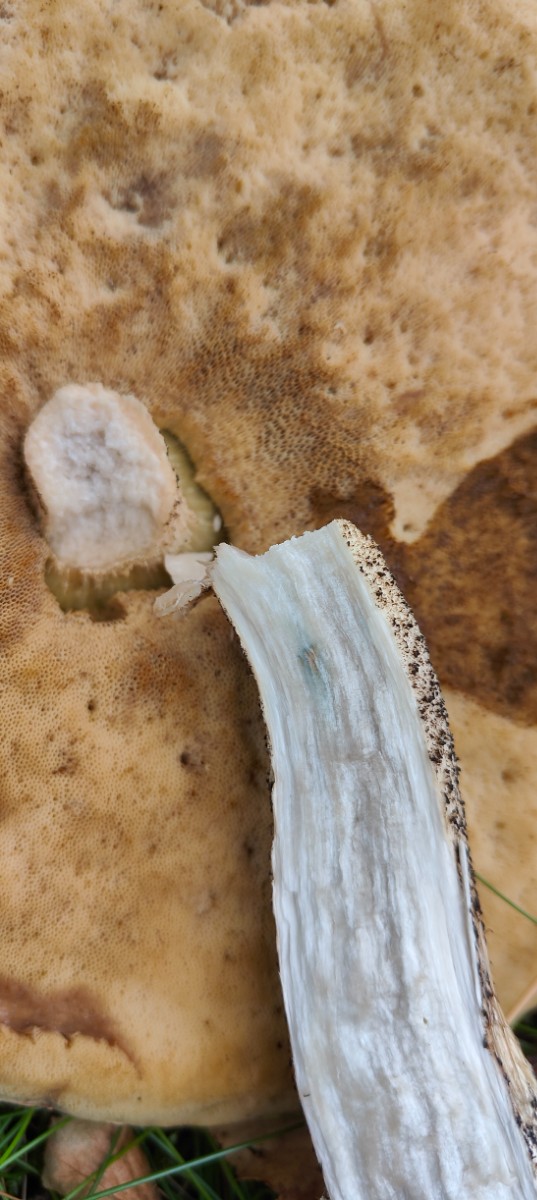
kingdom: Fungi
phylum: Basidiomycota
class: Agaricomycetes
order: Boletales
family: Boletaceae
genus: Leccinum
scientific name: Leccinum versipelle
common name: orange skælrørhat
